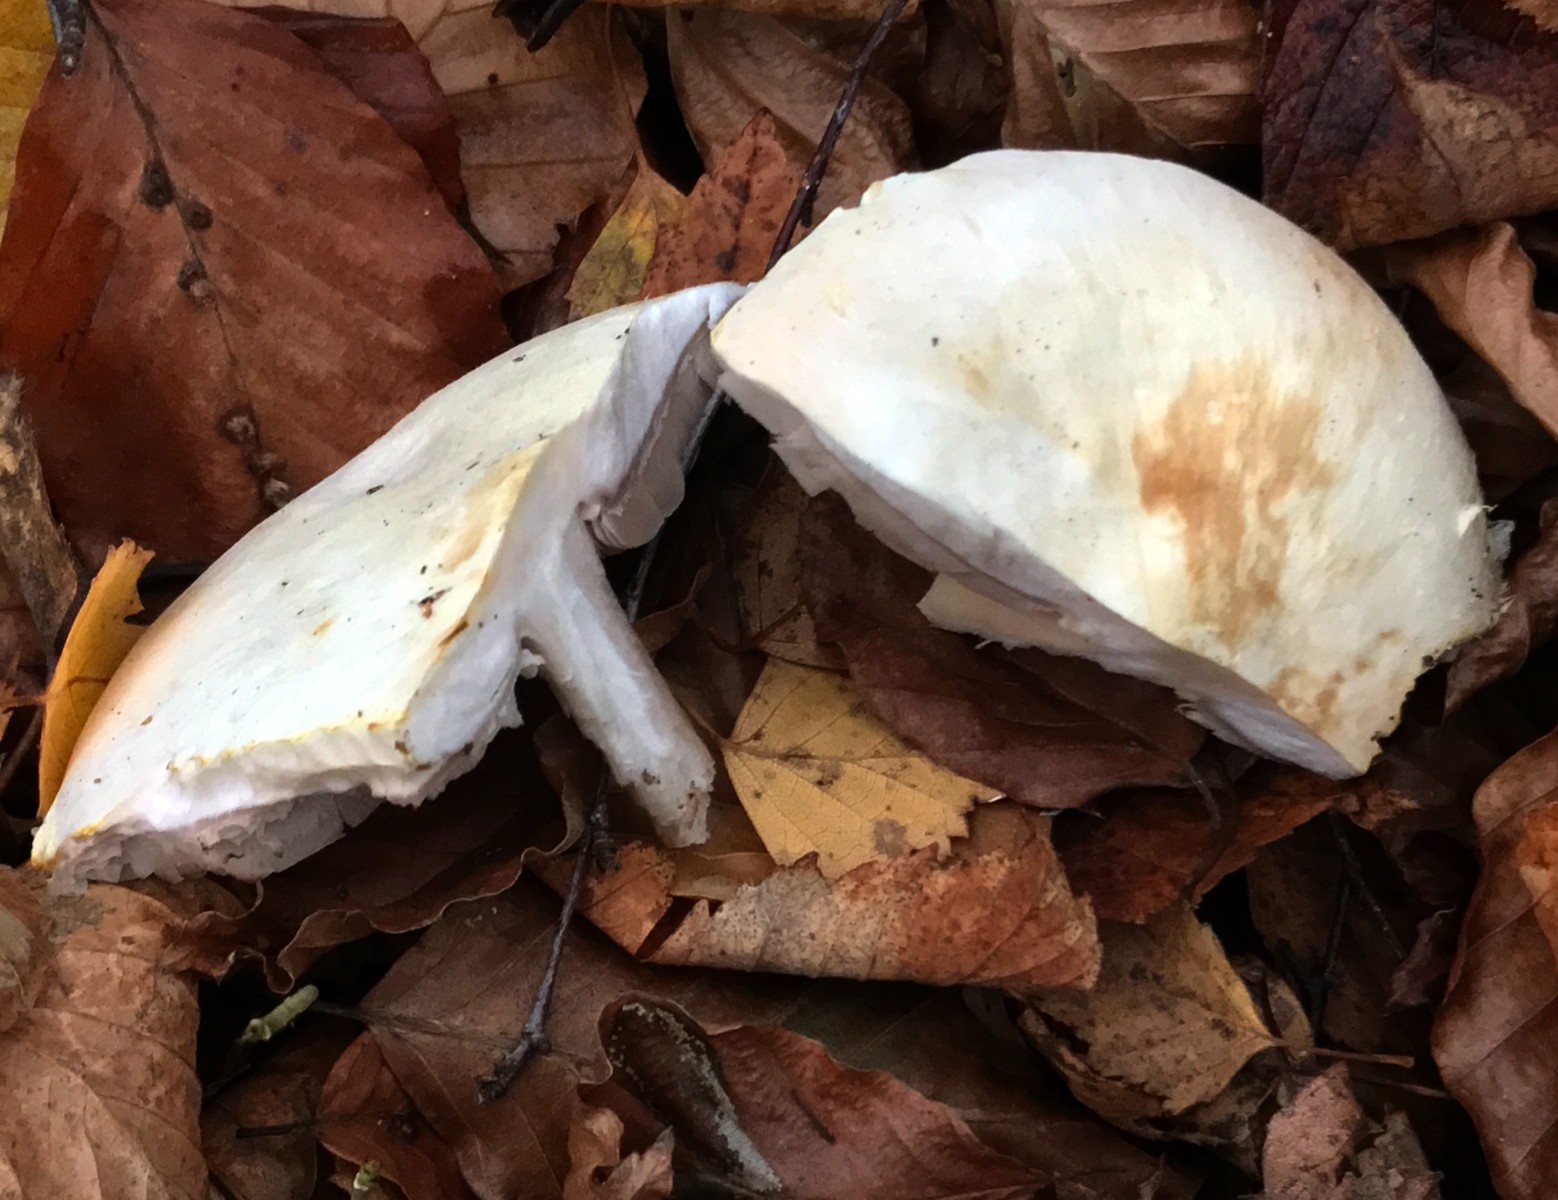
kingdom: Fungi
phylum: Basidiomycota
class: Agaricomycetes
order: Agaricales
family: Agaricaceae
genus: Agaricus
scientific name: Agaricus sylvicola
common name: gulhvid champignon
